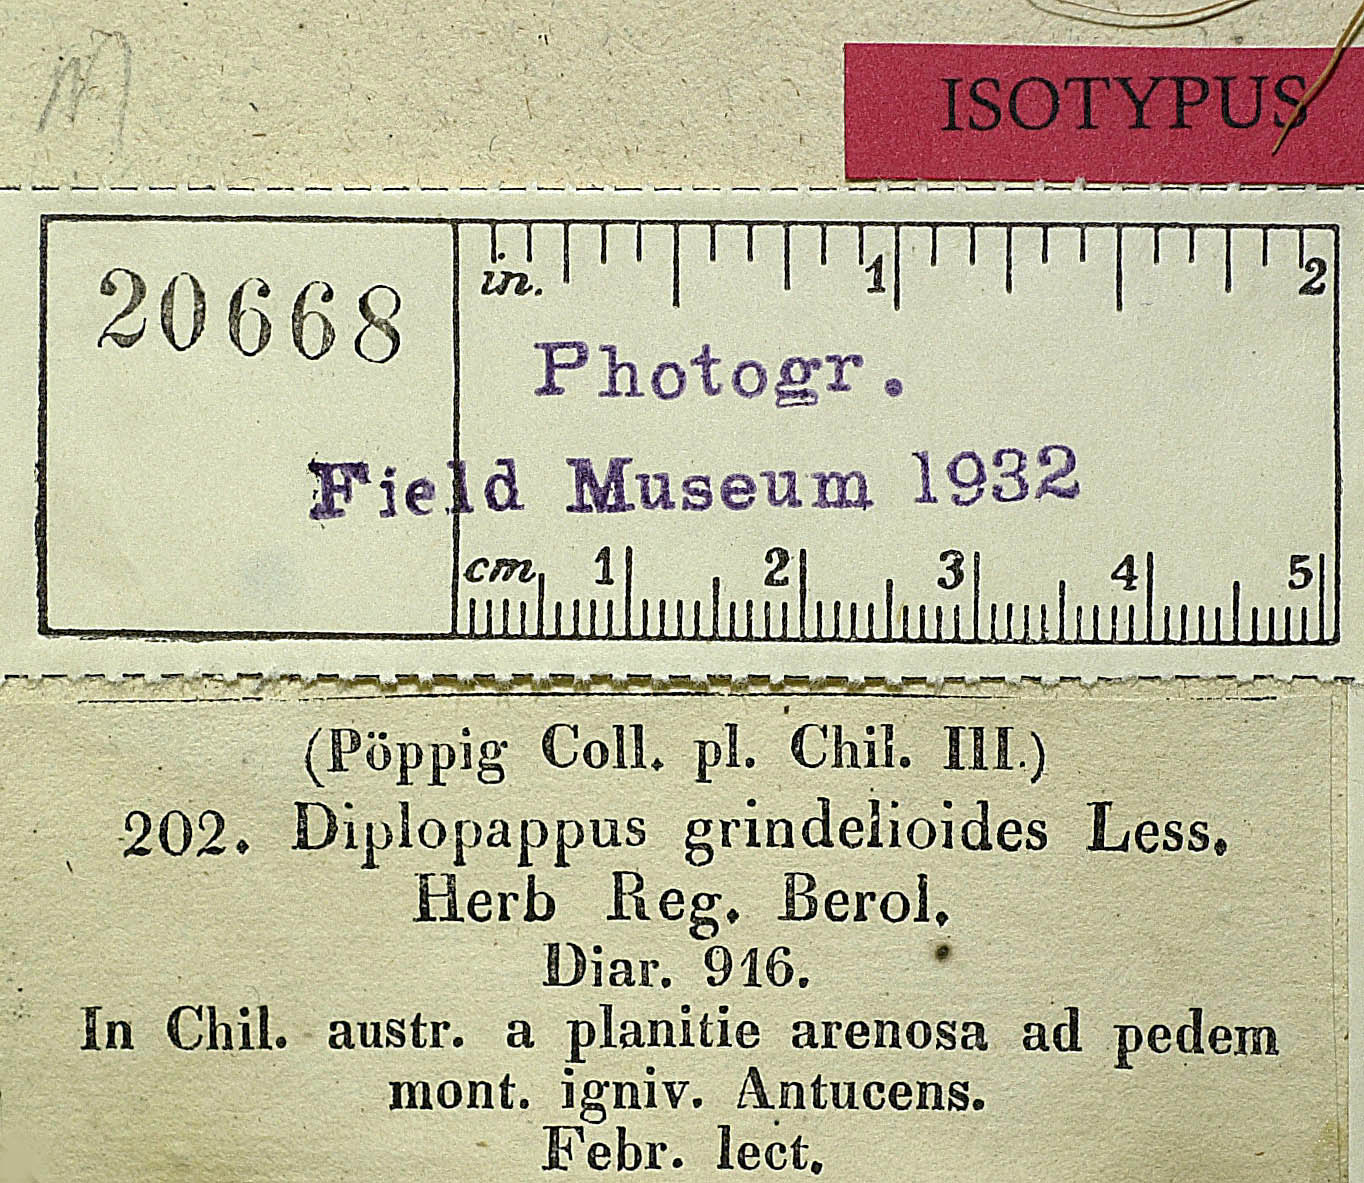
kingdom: Plantae
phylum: Tracheophyta
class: Magnoliopsida
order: Asterales
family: Asteraceae
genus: Haplopappus
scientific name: Haplopappus grindelioides
